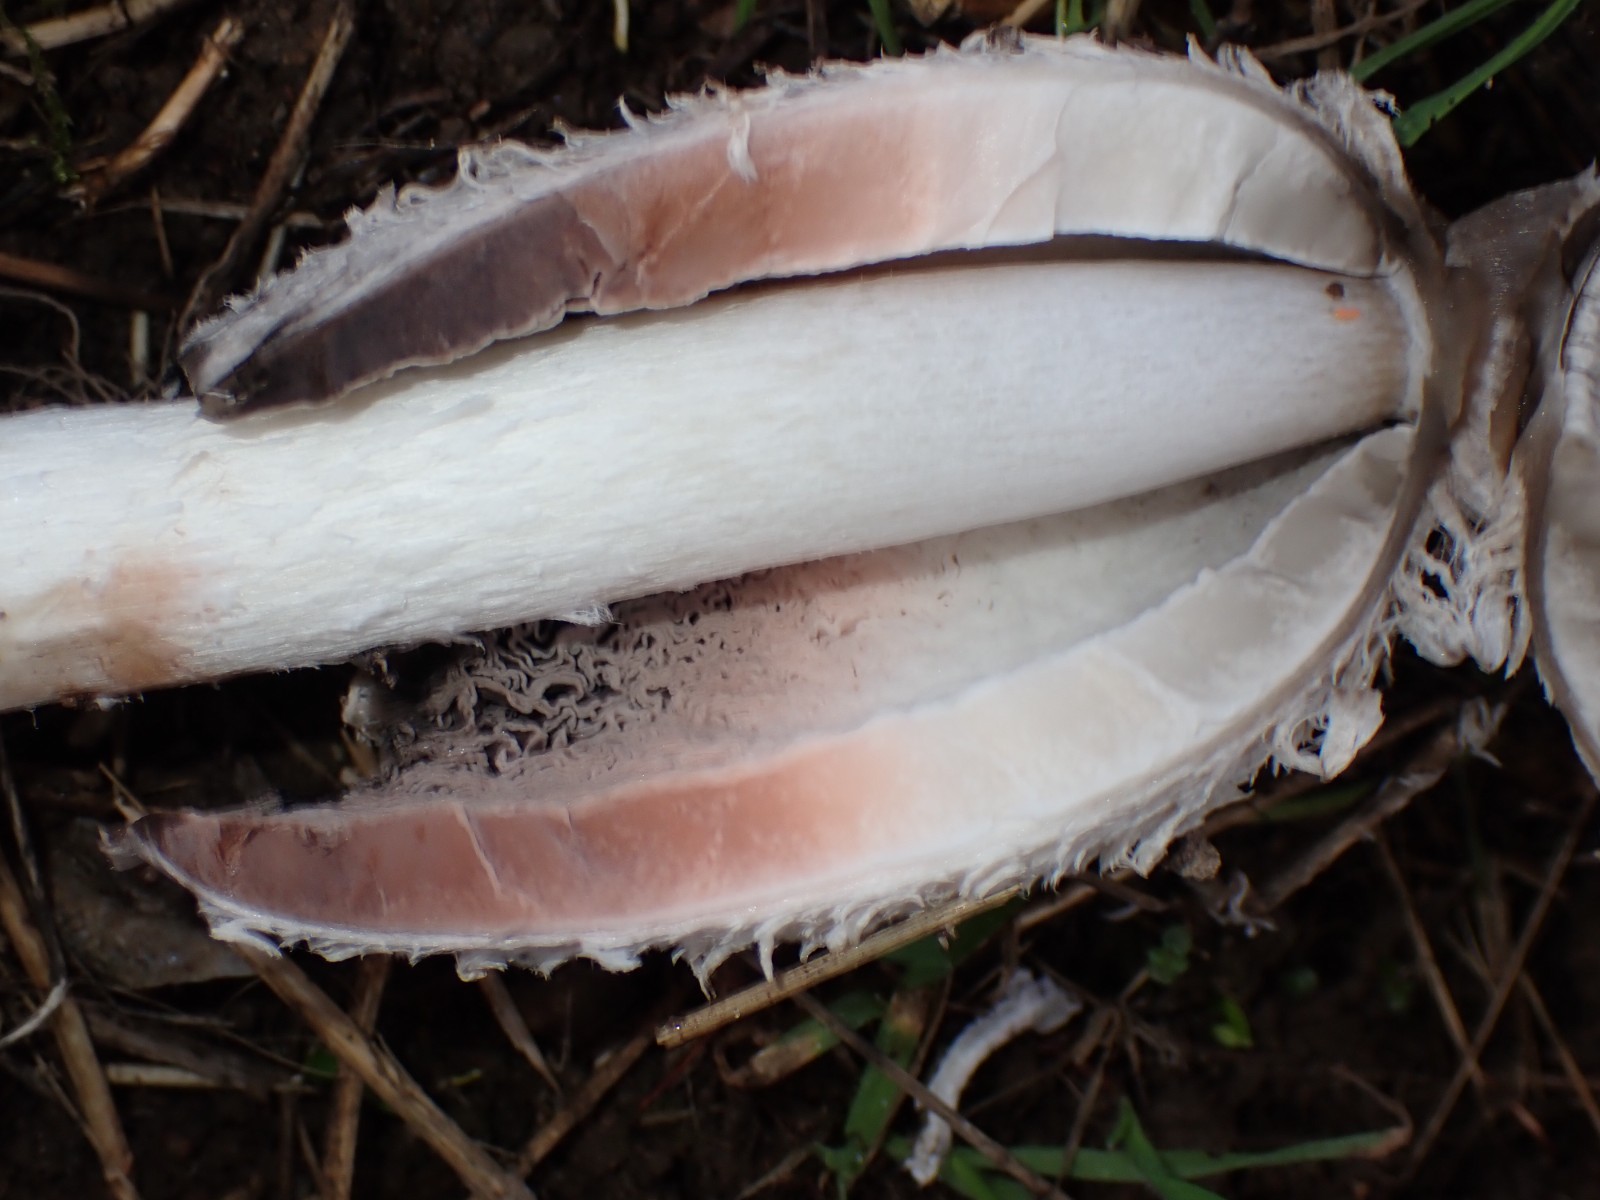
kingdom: Fungi
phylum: Basidiomycota
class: Agaricomycetes
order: Agaricales
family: Agaricaceae
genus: Coprinus
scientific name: Coprinus comatus
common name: stor parykhat
